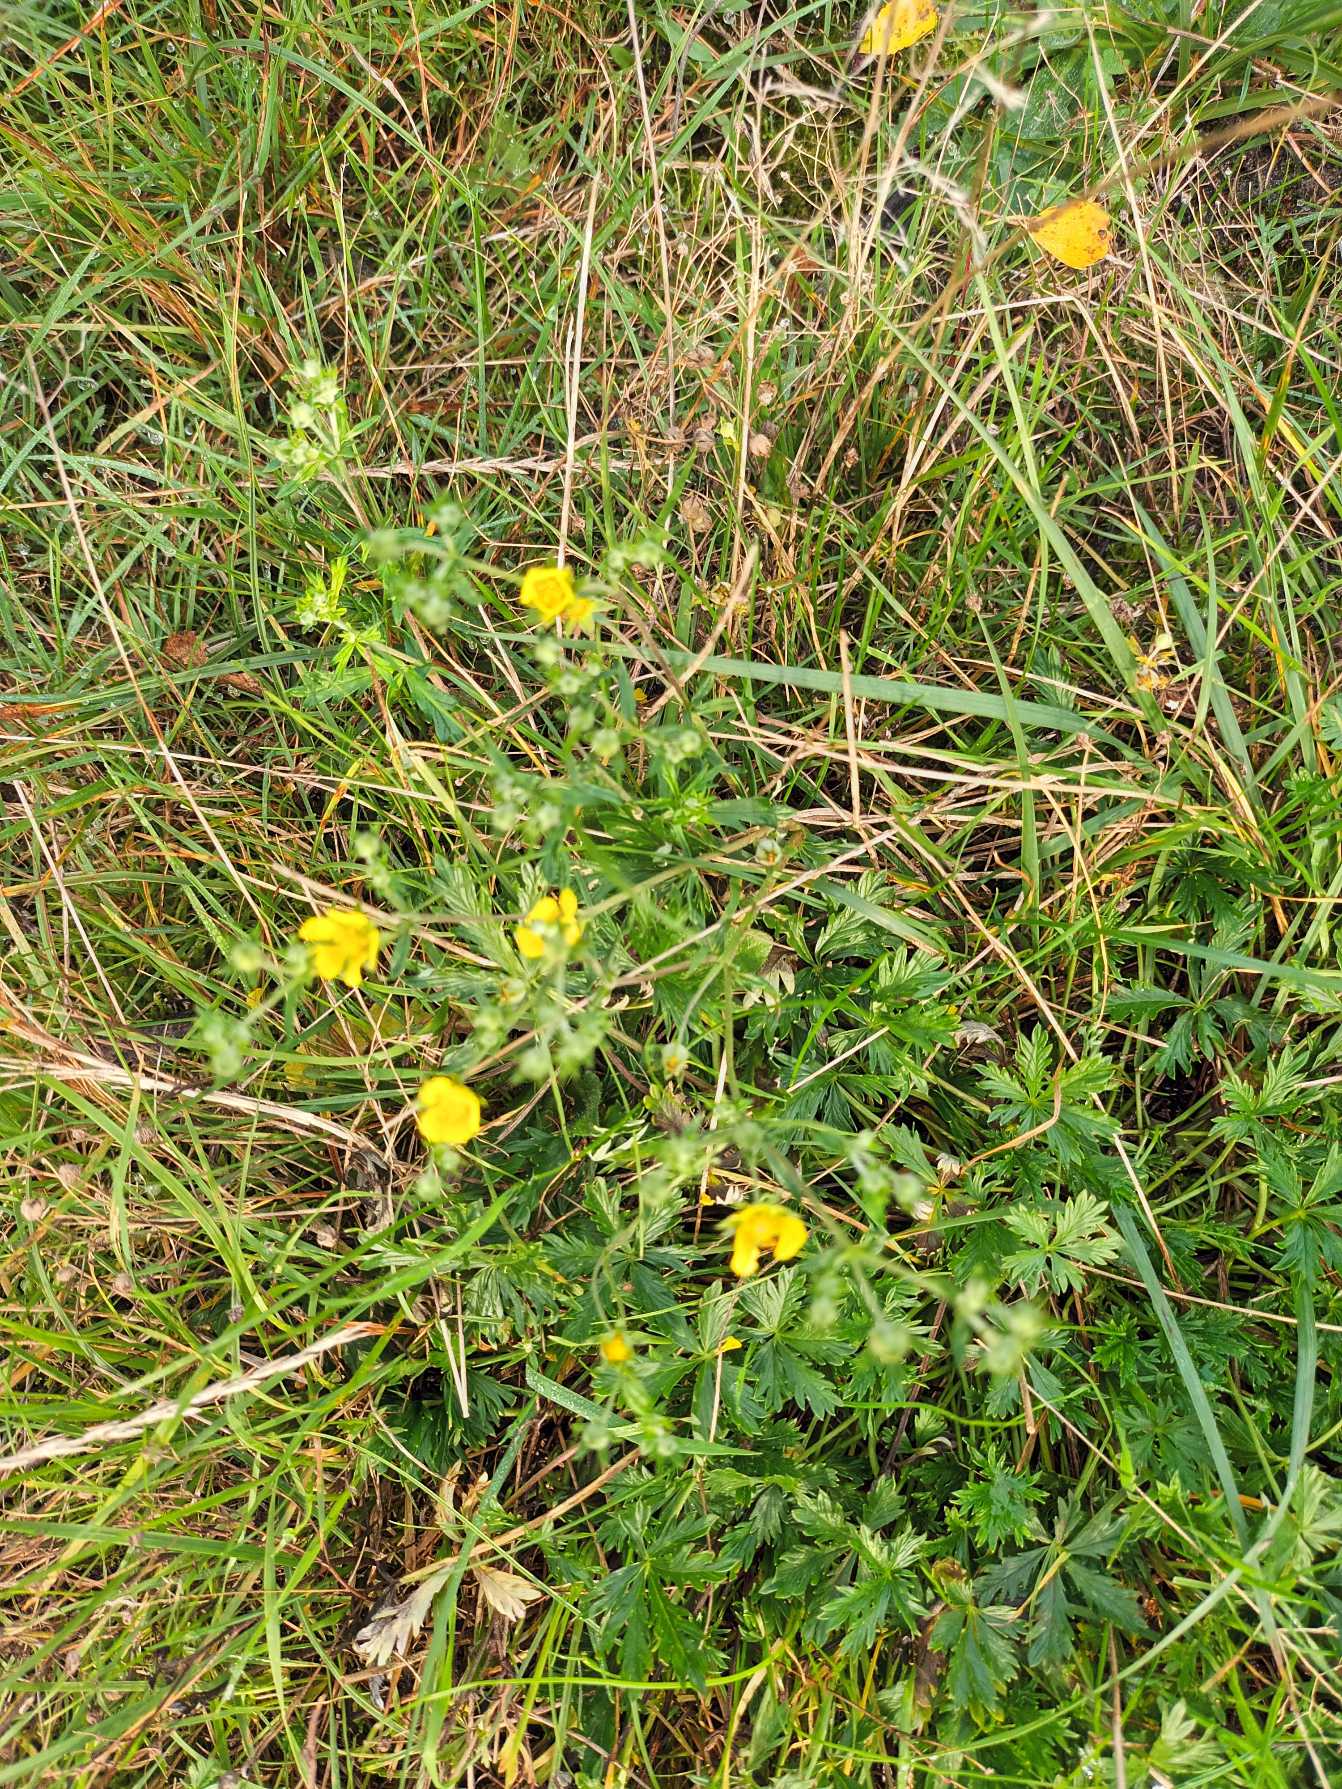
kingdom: Plantae
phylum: Tracheophyta
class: Magnoliopsida
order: Rosales
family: Rosaceae
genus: Potentilla
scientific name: Potentilla argentea
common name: Sølv-potentil
